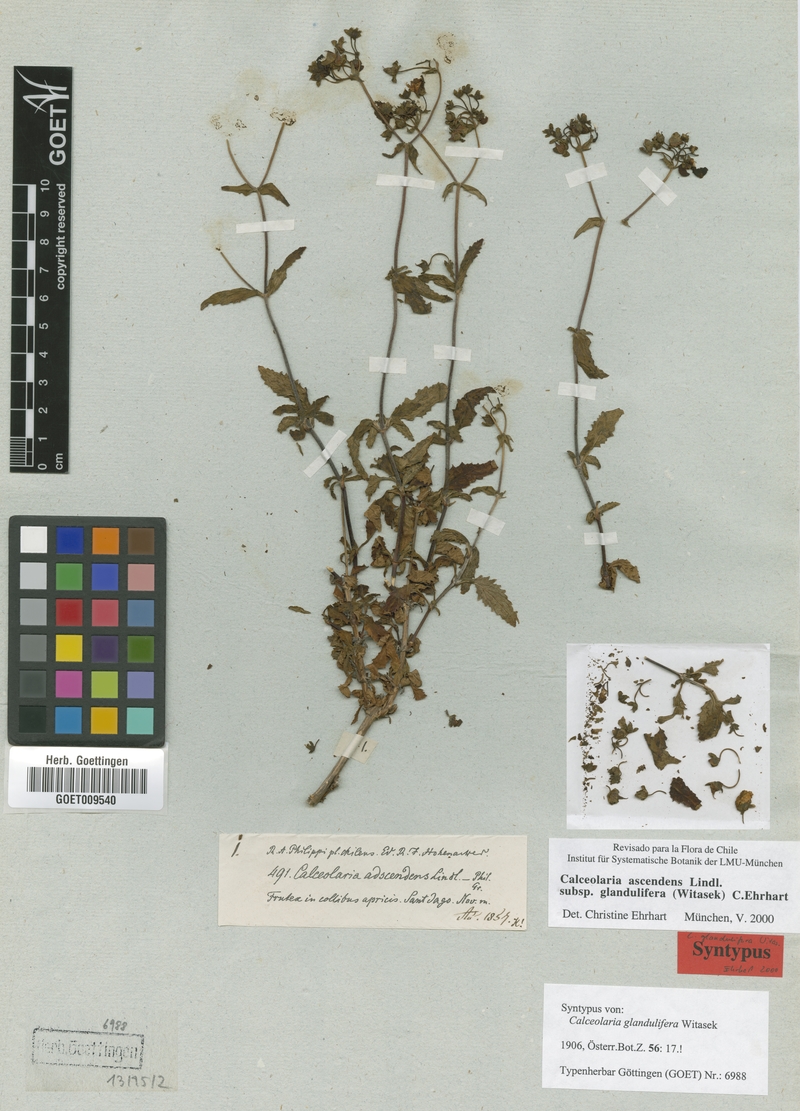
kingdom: Plantae
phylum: Tracheophyta
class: Magnoliopsida
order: Lamiales
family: Calceolariaceae
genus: Calceolaria
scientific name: Calceolaria ascendens
